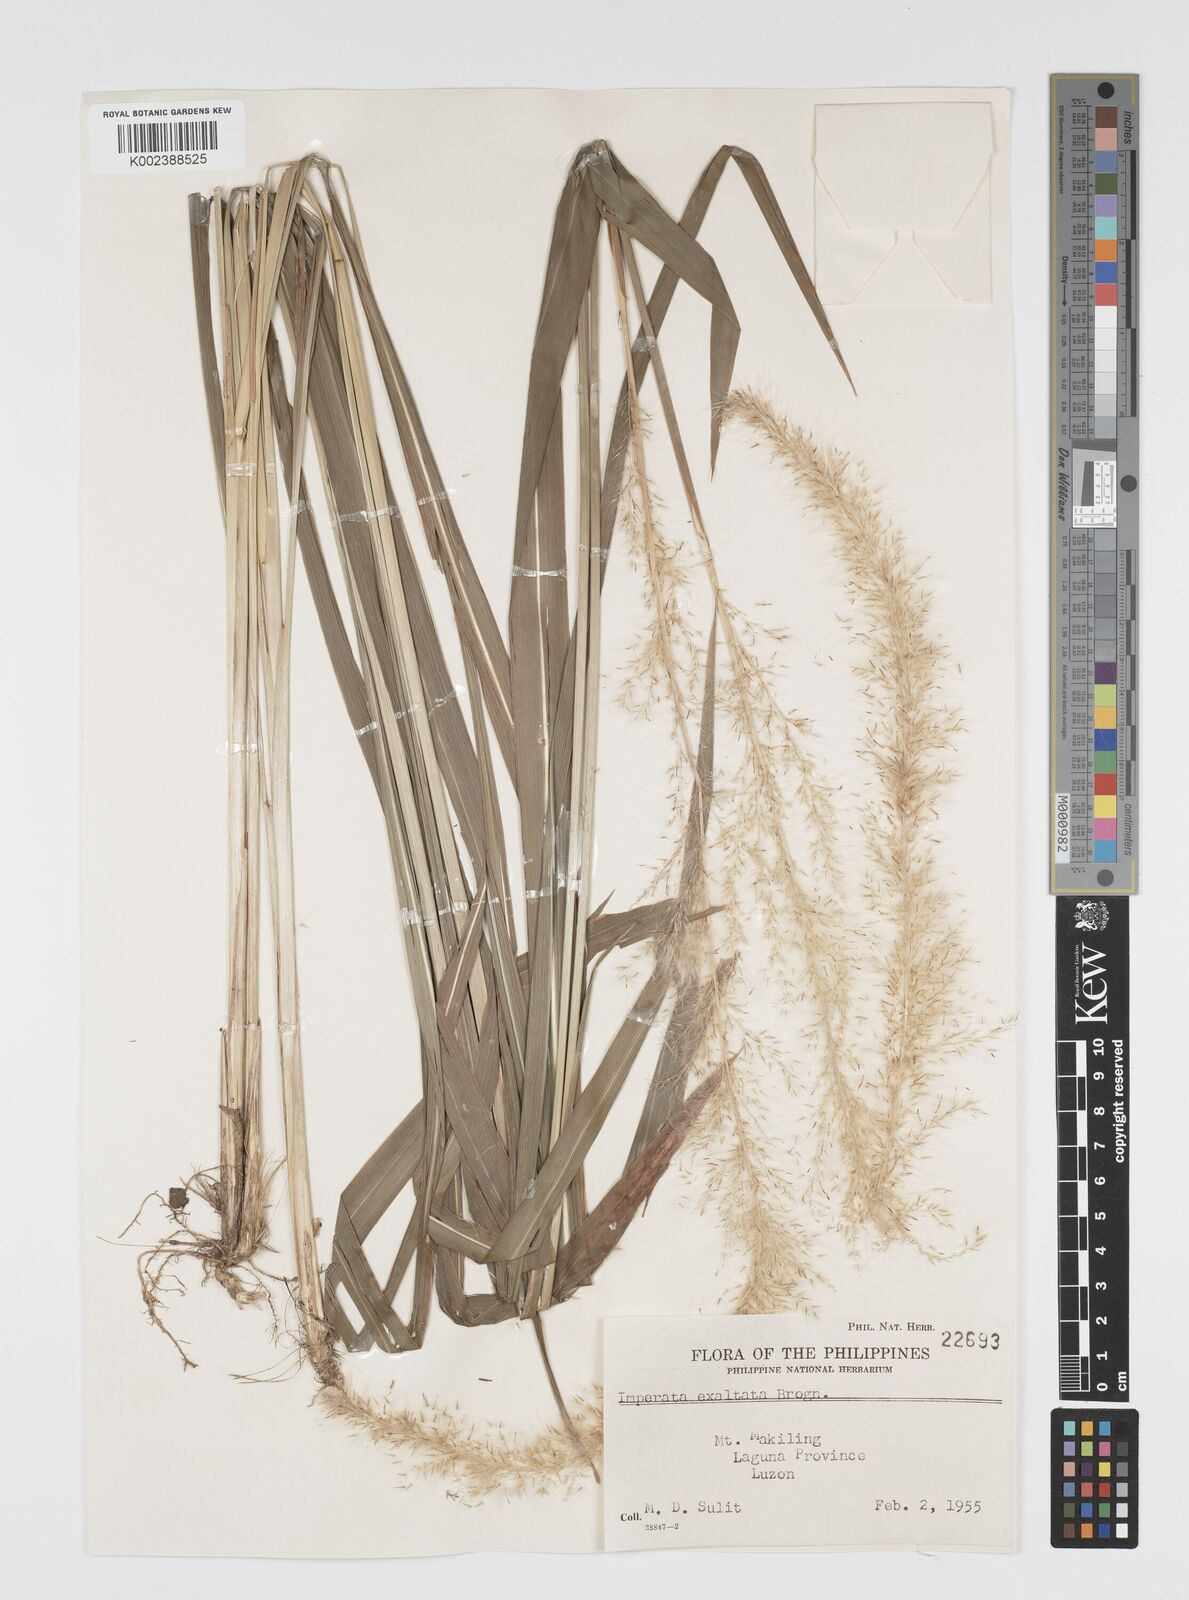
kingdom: Plantae
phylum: Tracheophyta
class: Liliopsida
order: Poales
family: Poaceae
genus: Imperata
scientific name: Imperata conferta
